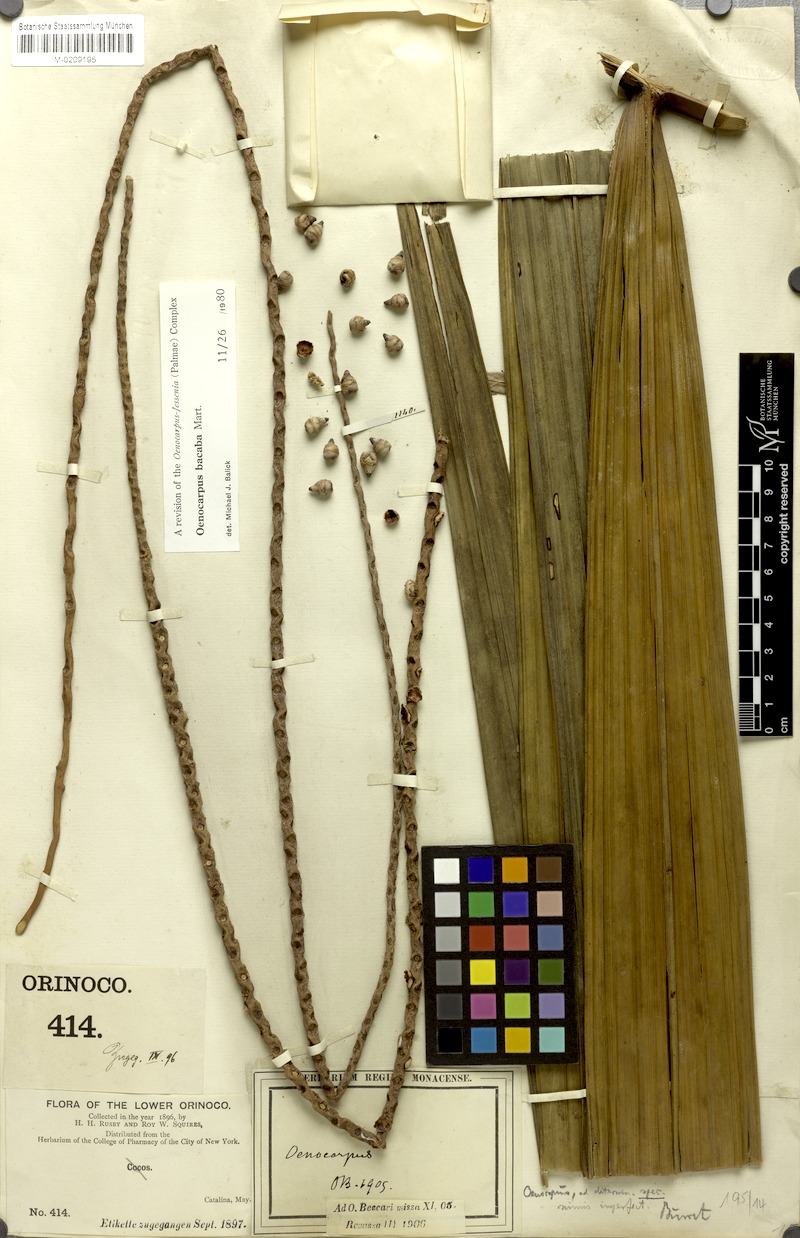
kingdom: Plantae
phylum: Tracheophyta
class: Liliopsida
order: Arecales
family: Arecaceae
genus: Oenocarpus
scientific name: Oenocarpus bacaba
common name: Bacaba palm
